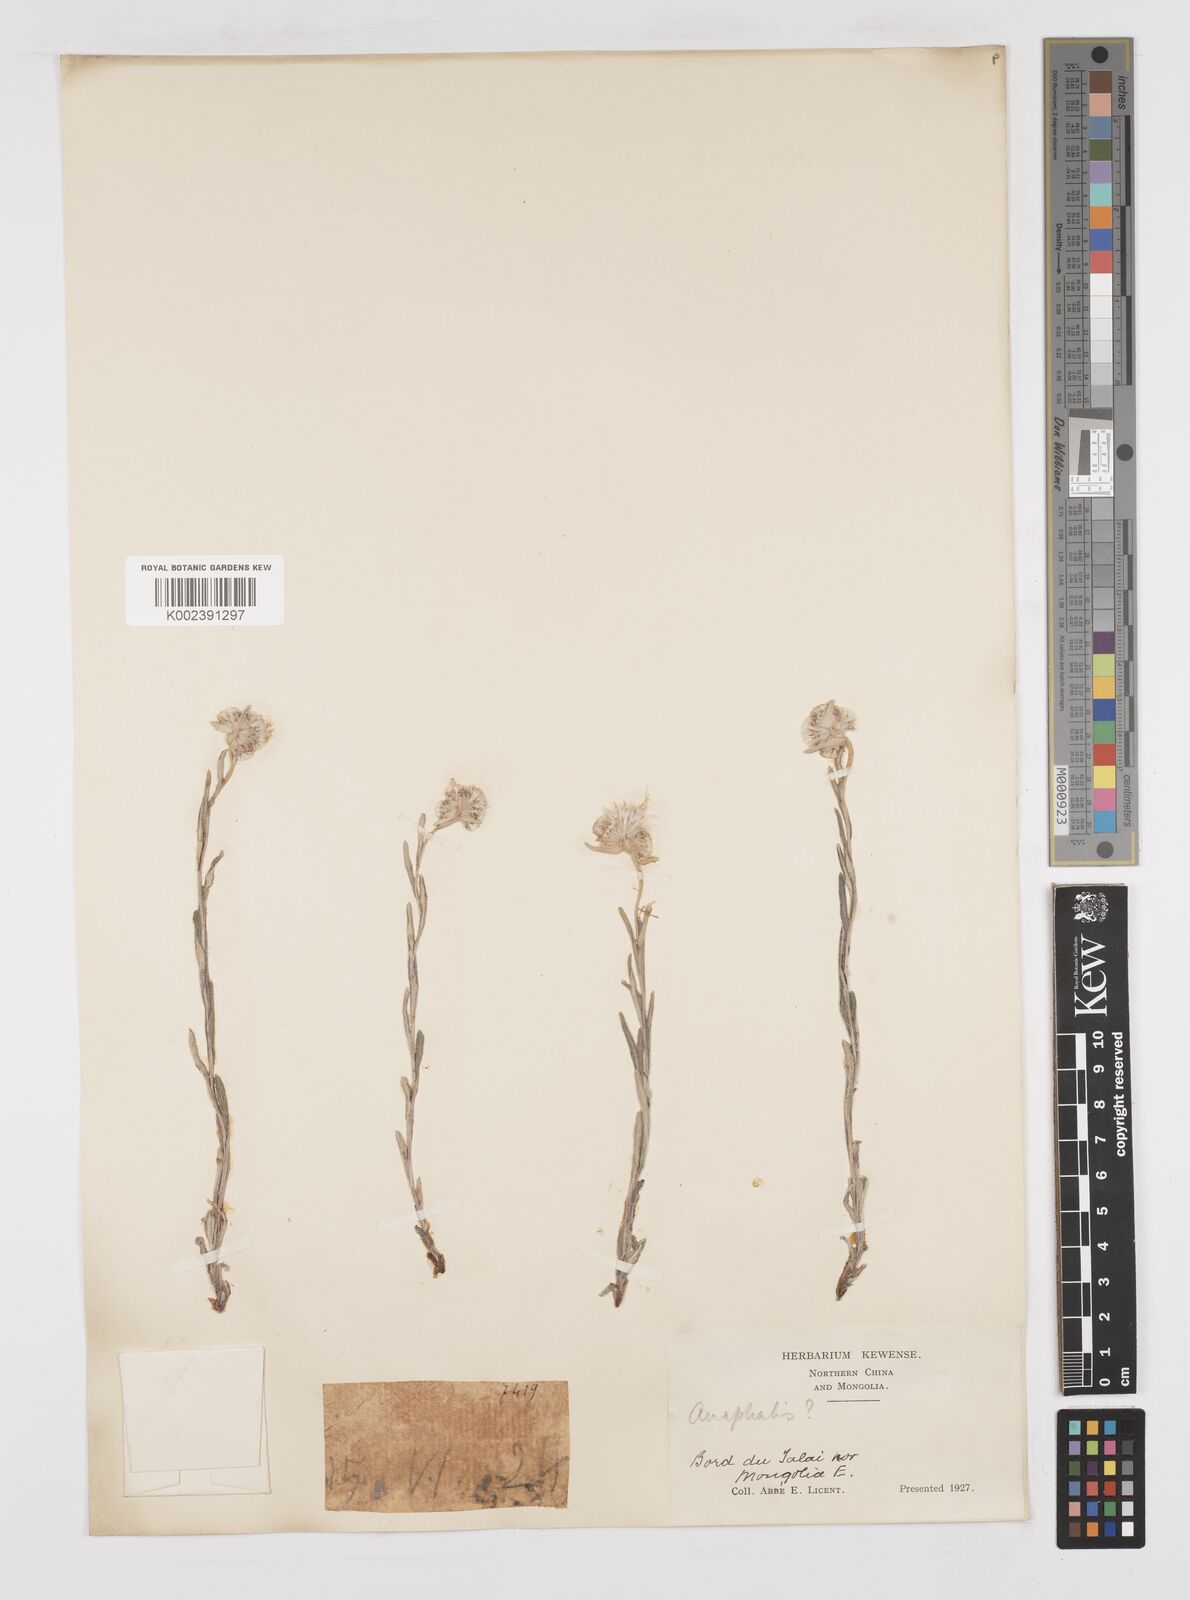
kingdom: Plantae
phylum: Tracheophyta
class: Magnoliopsida
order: Asterales
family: Asteraceae
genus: Anaphalis
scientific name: Anaphalis sinica
